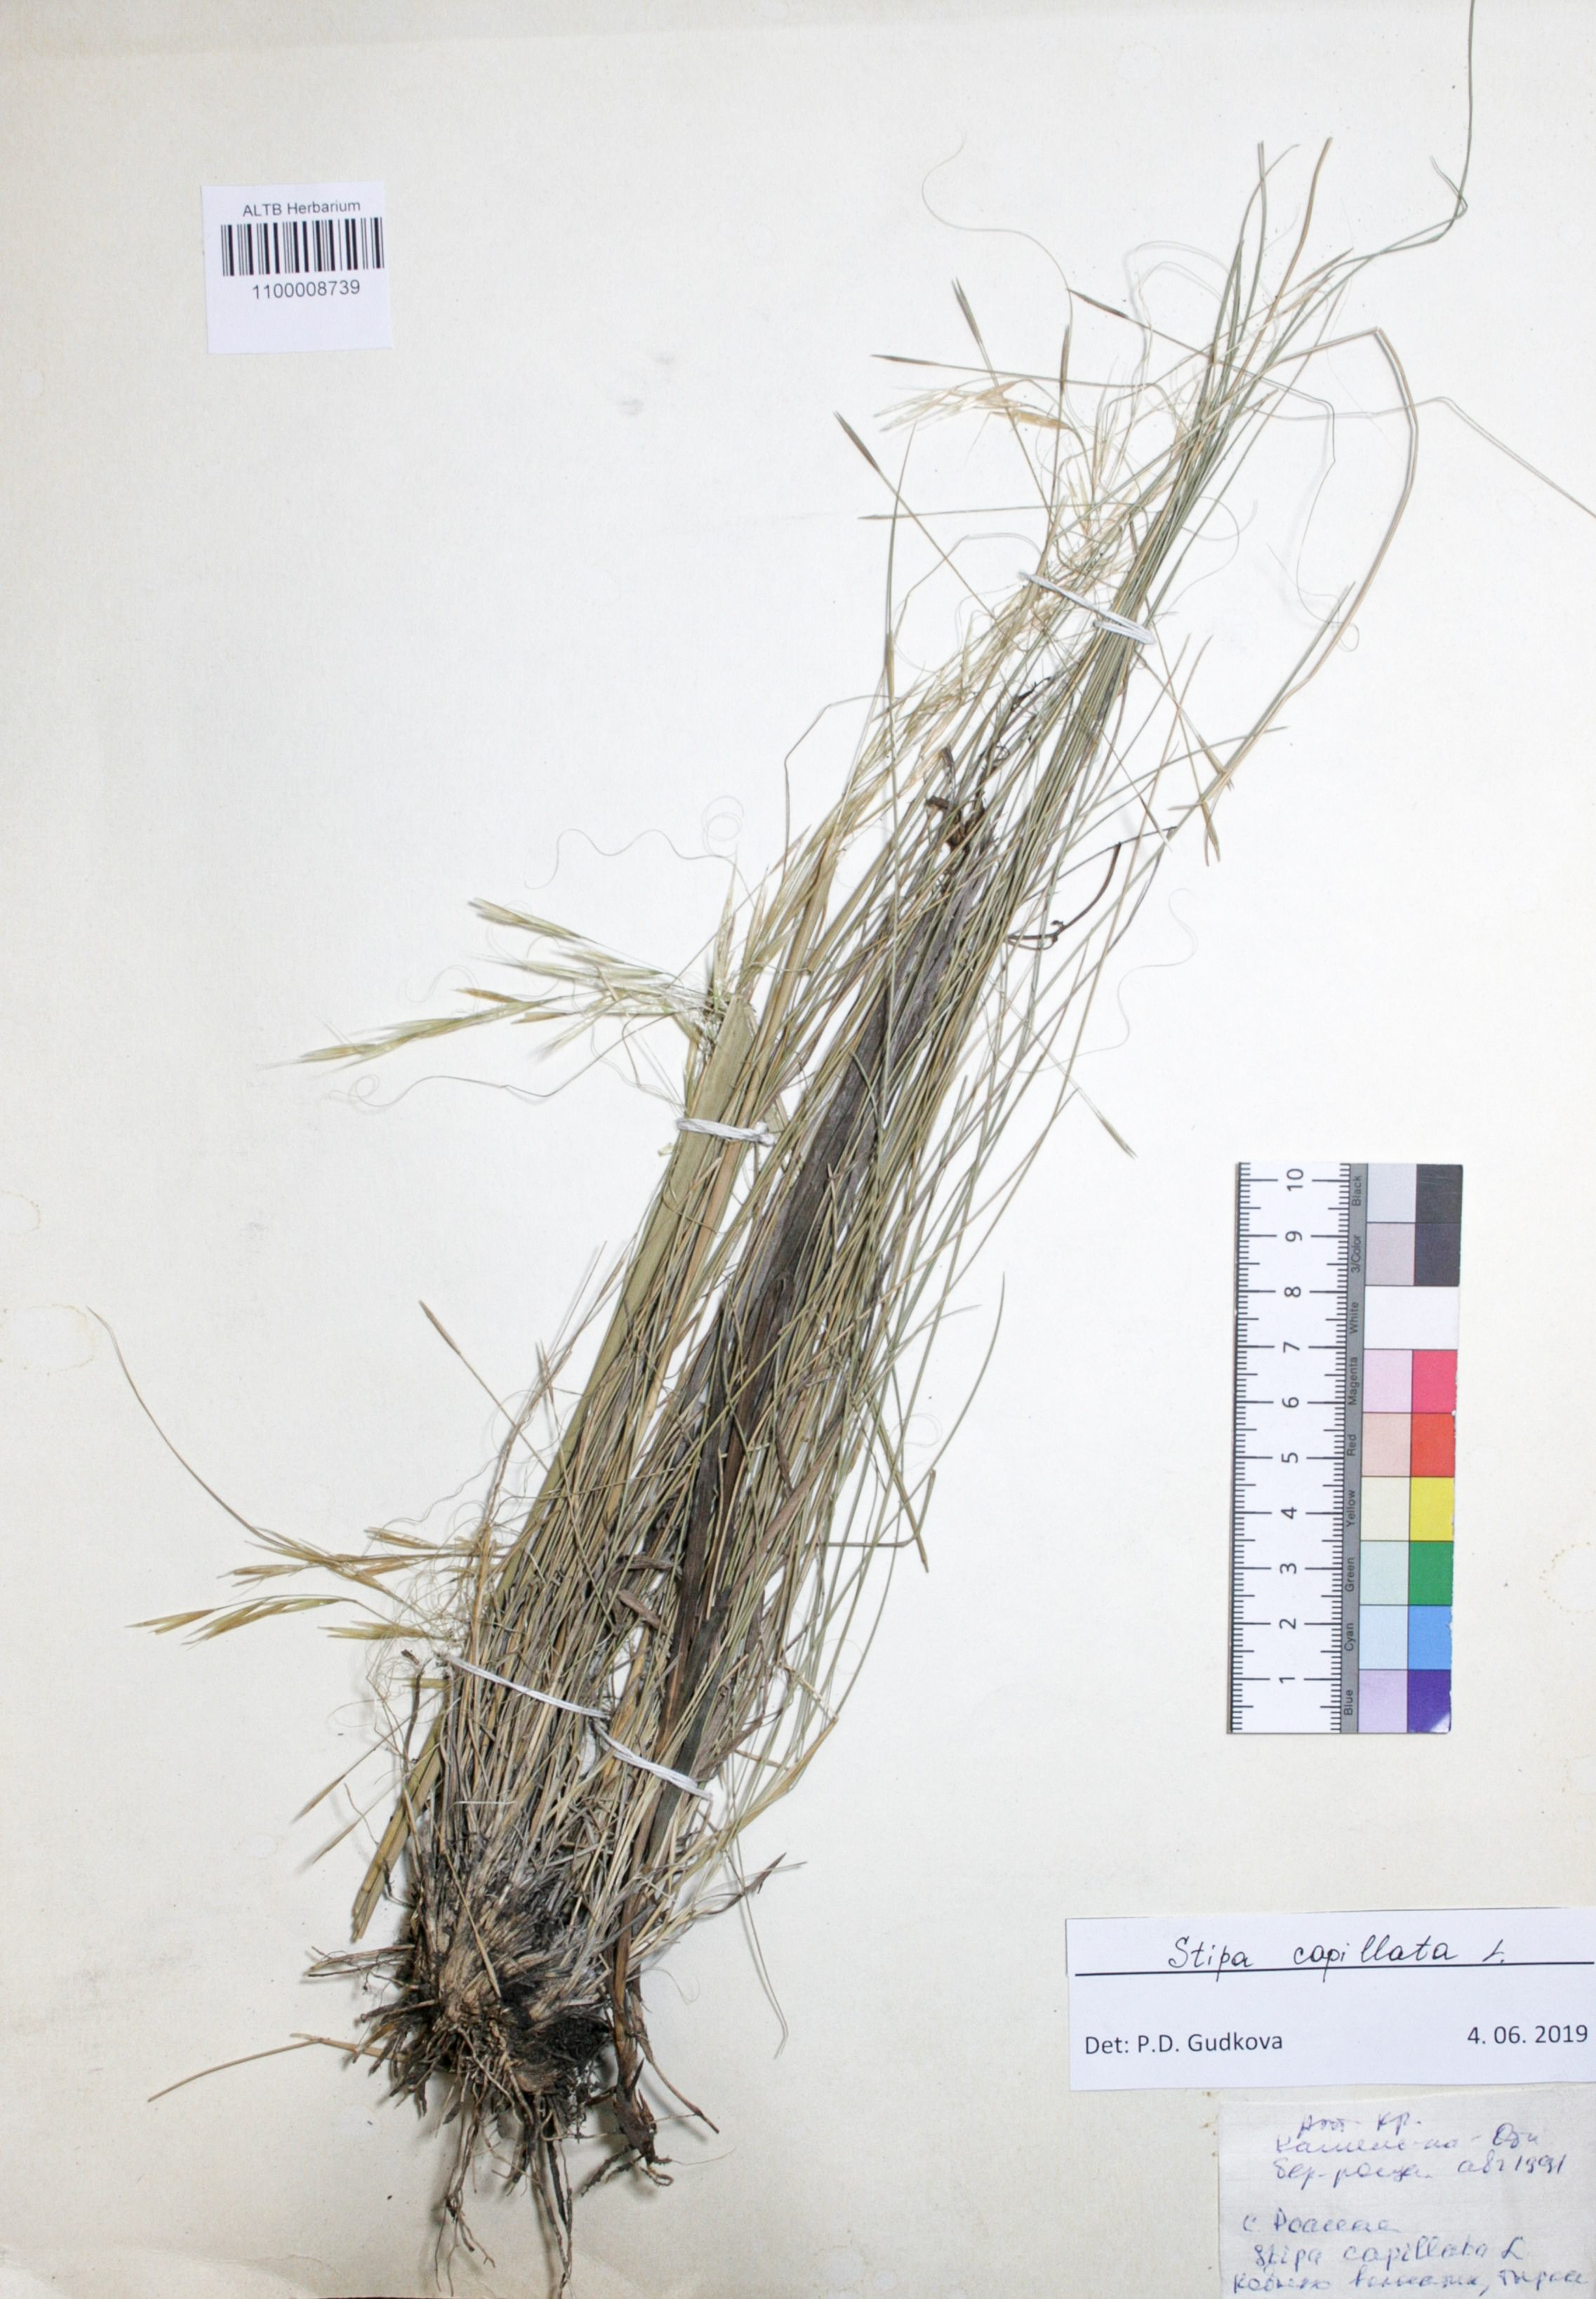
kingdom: Plantae
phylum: Tracheophyta
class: Liliopsida
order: Poales
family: Poaceae
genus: Stipa
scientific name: Stipa capillata
